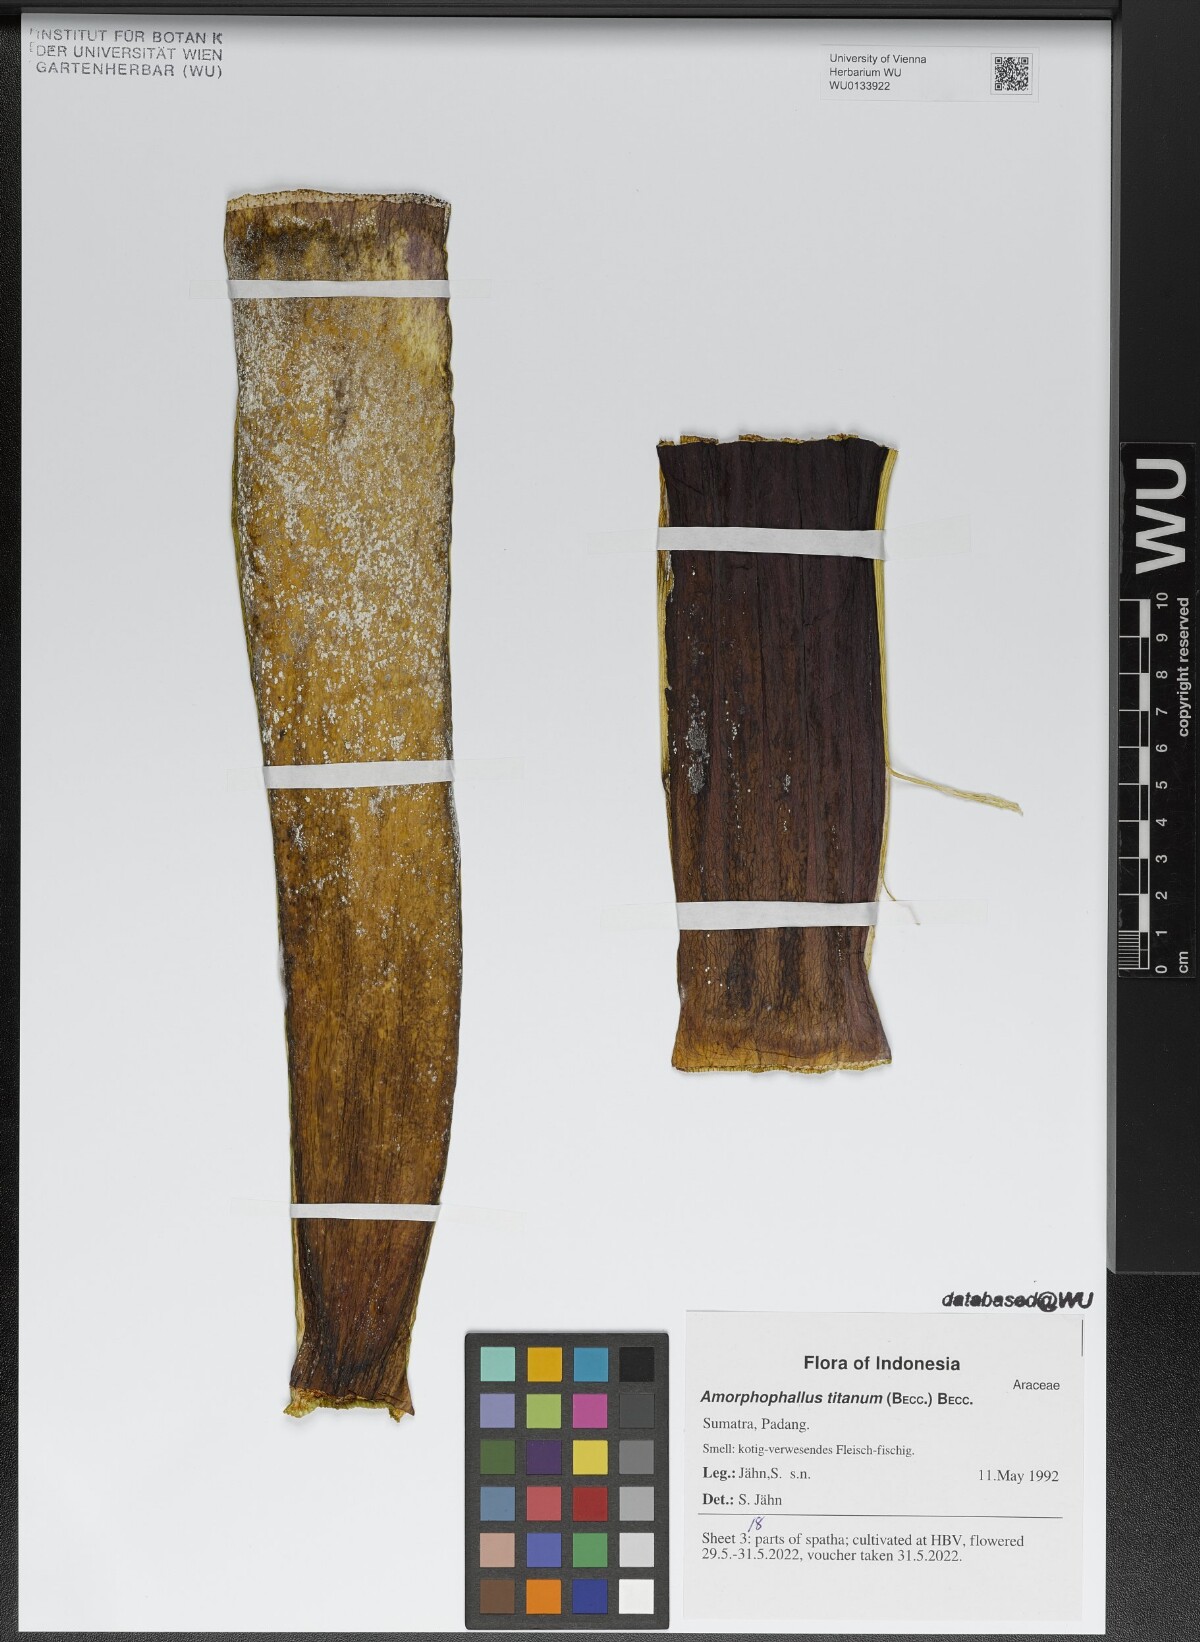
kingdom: Plantae
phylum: Tracheophyta
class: Liliopsida
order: Alismatales
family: Araceae
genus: Amorphophallus
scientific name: Amorphophallus titanum
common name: Titan arum
